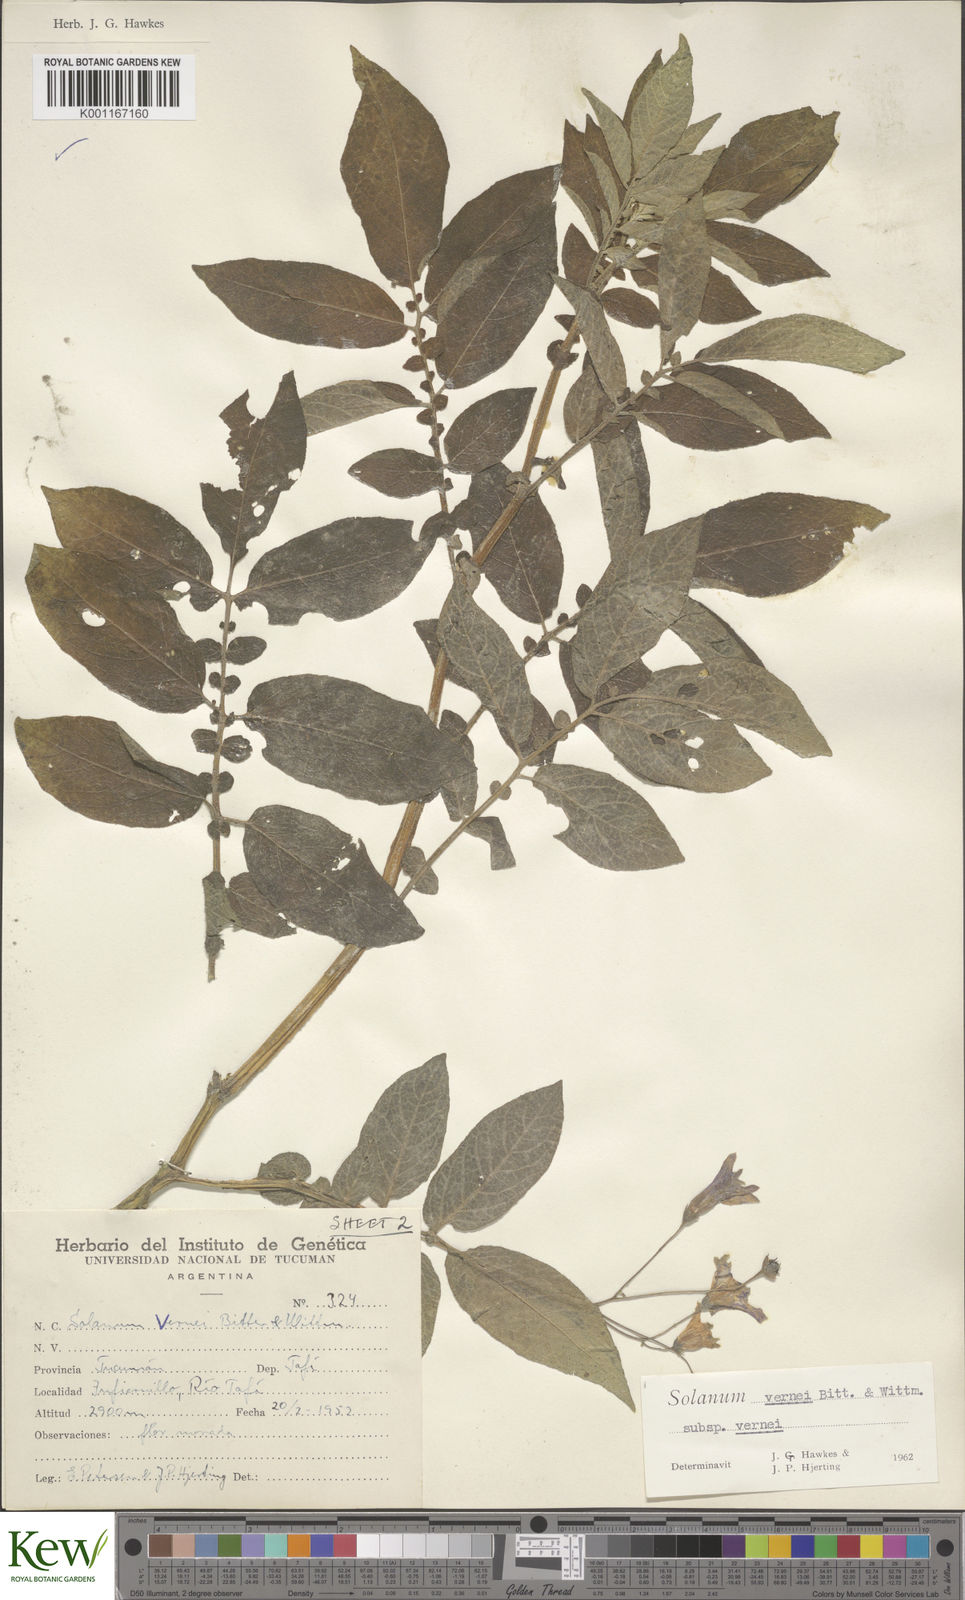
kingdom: Plantae
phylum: Tracheophyta
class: Magnoliopsida
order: Solanales
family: Solanaceae
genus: Solanum
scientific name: Solanum vernei
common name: Purple potato
